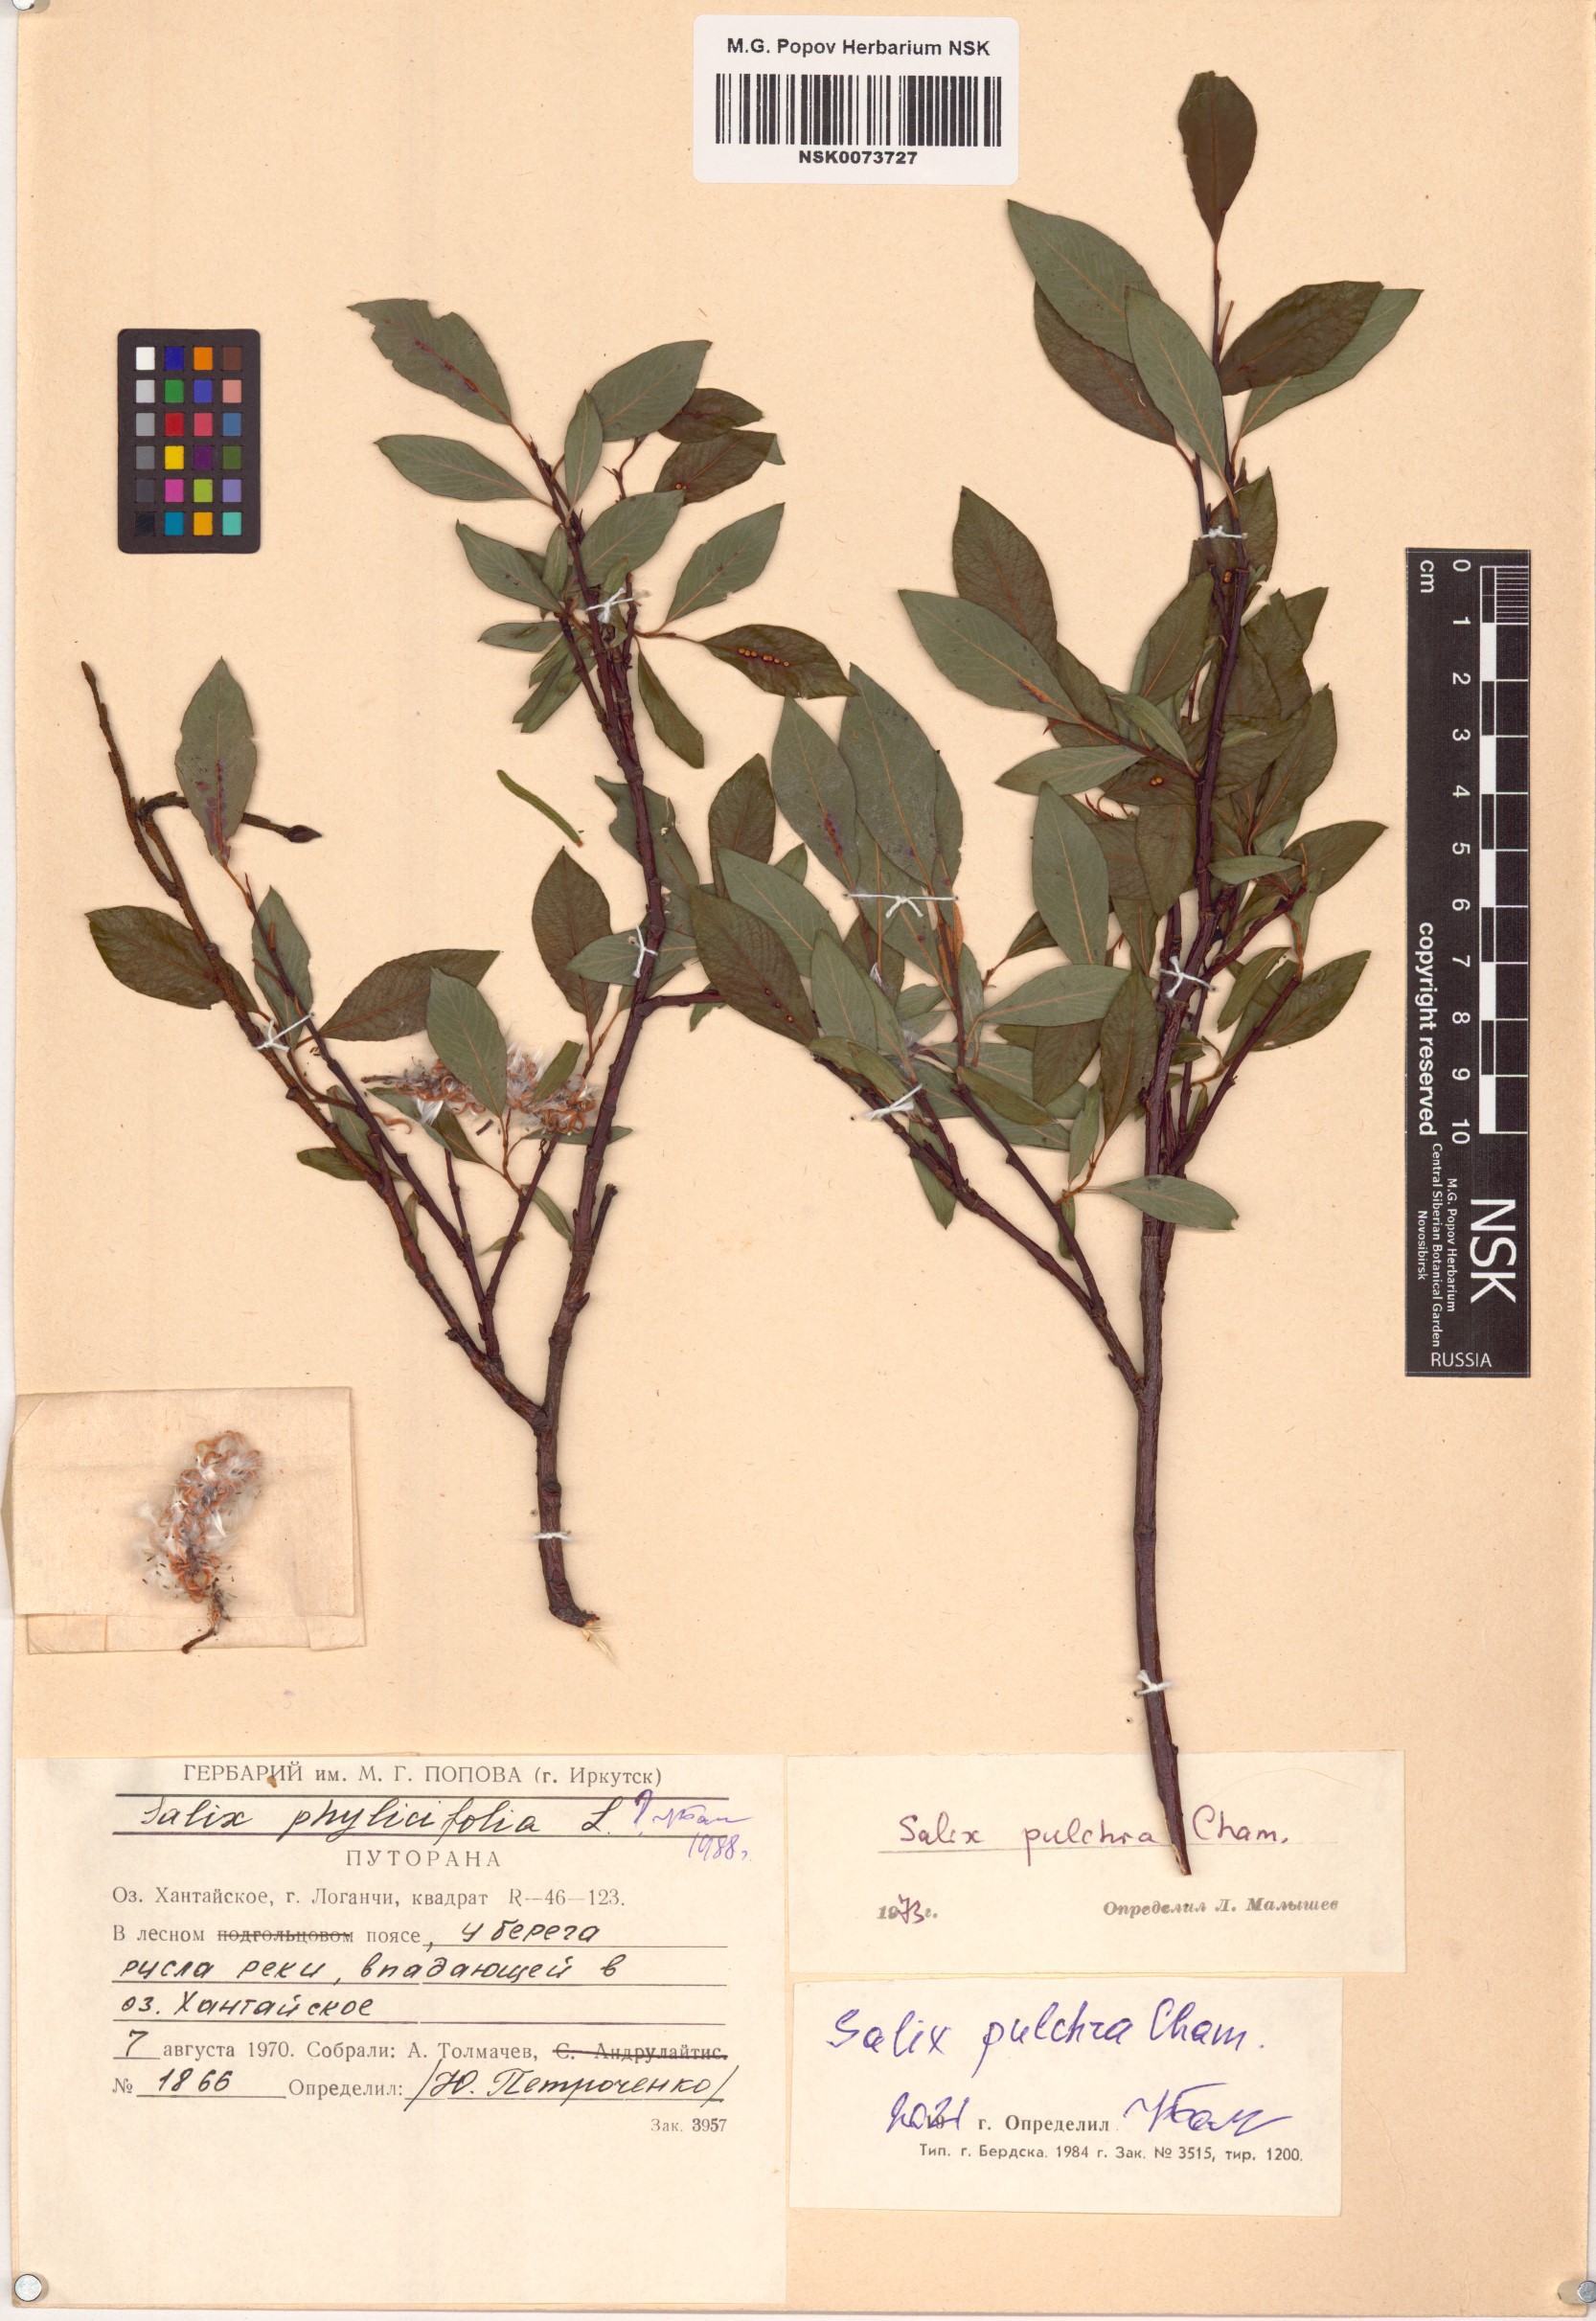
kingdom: Plantae
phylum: Tracheophyta
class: Magnoliopsida
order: Malpighiales
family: Salicaceae
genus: Salix
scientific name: Salix pulchra
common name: Diamond-leaved willow
